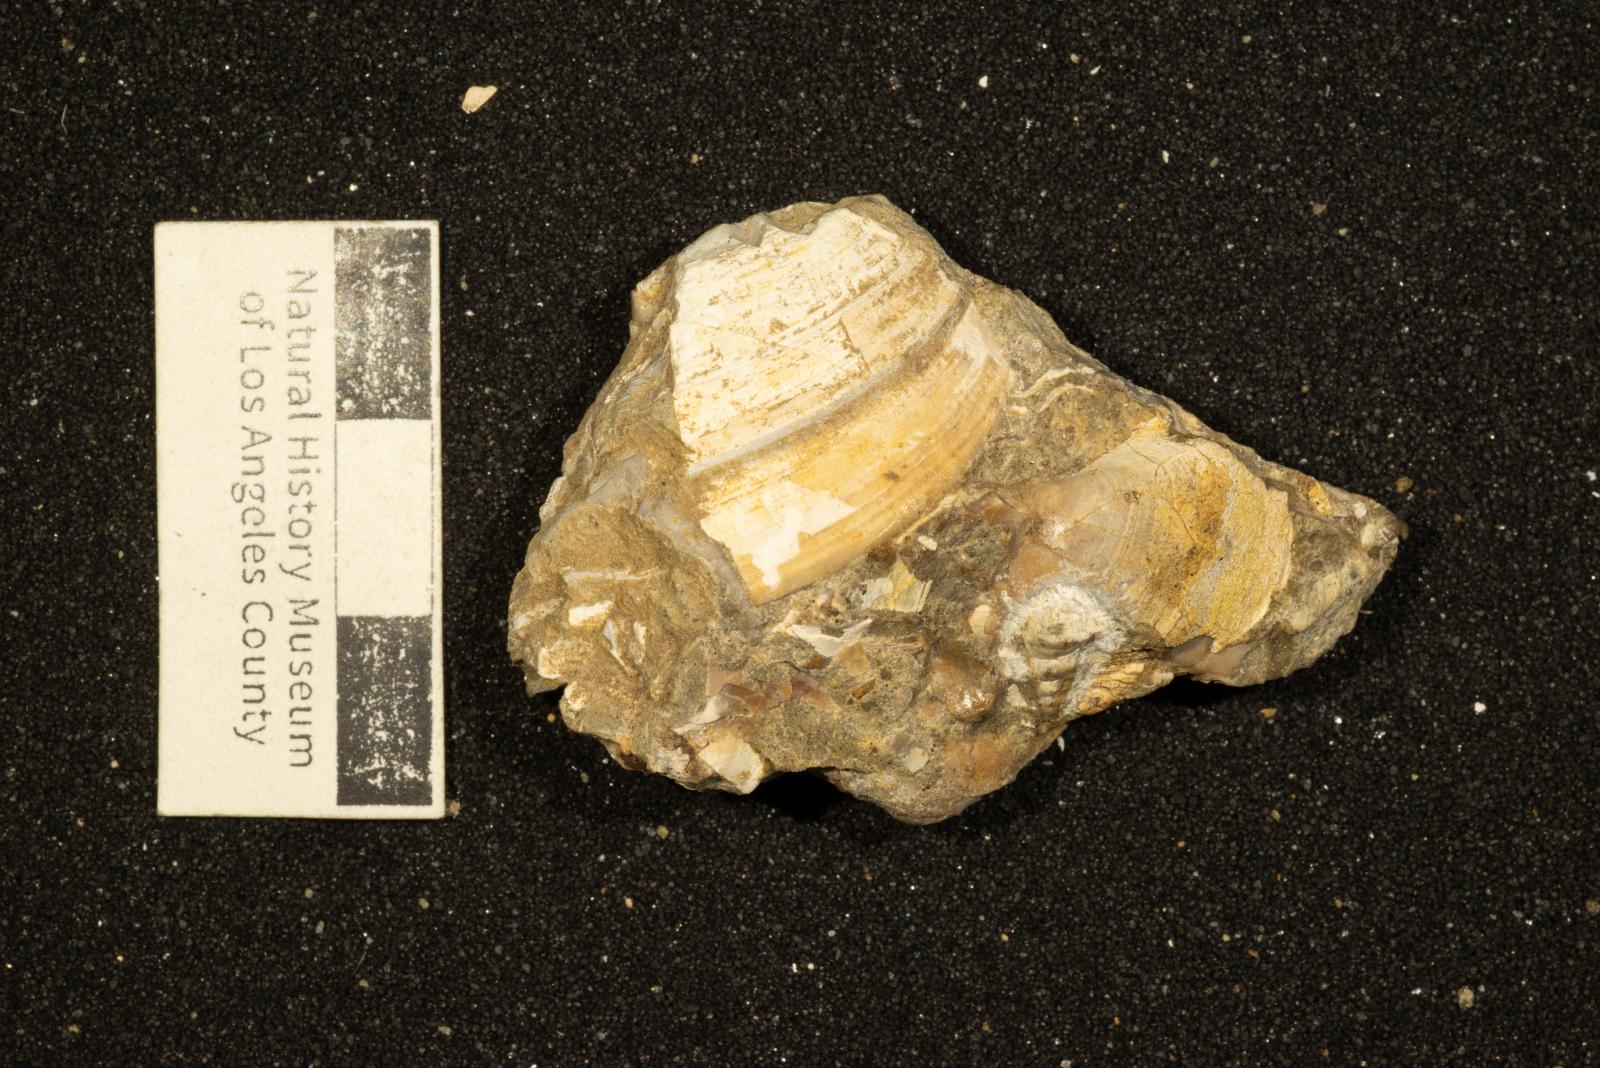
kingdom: Animalia
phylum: Mollusca
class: Gastropoda
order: Littorinimorpha
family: Aporrhaidae
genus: Teneposita
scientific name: Teneposita
